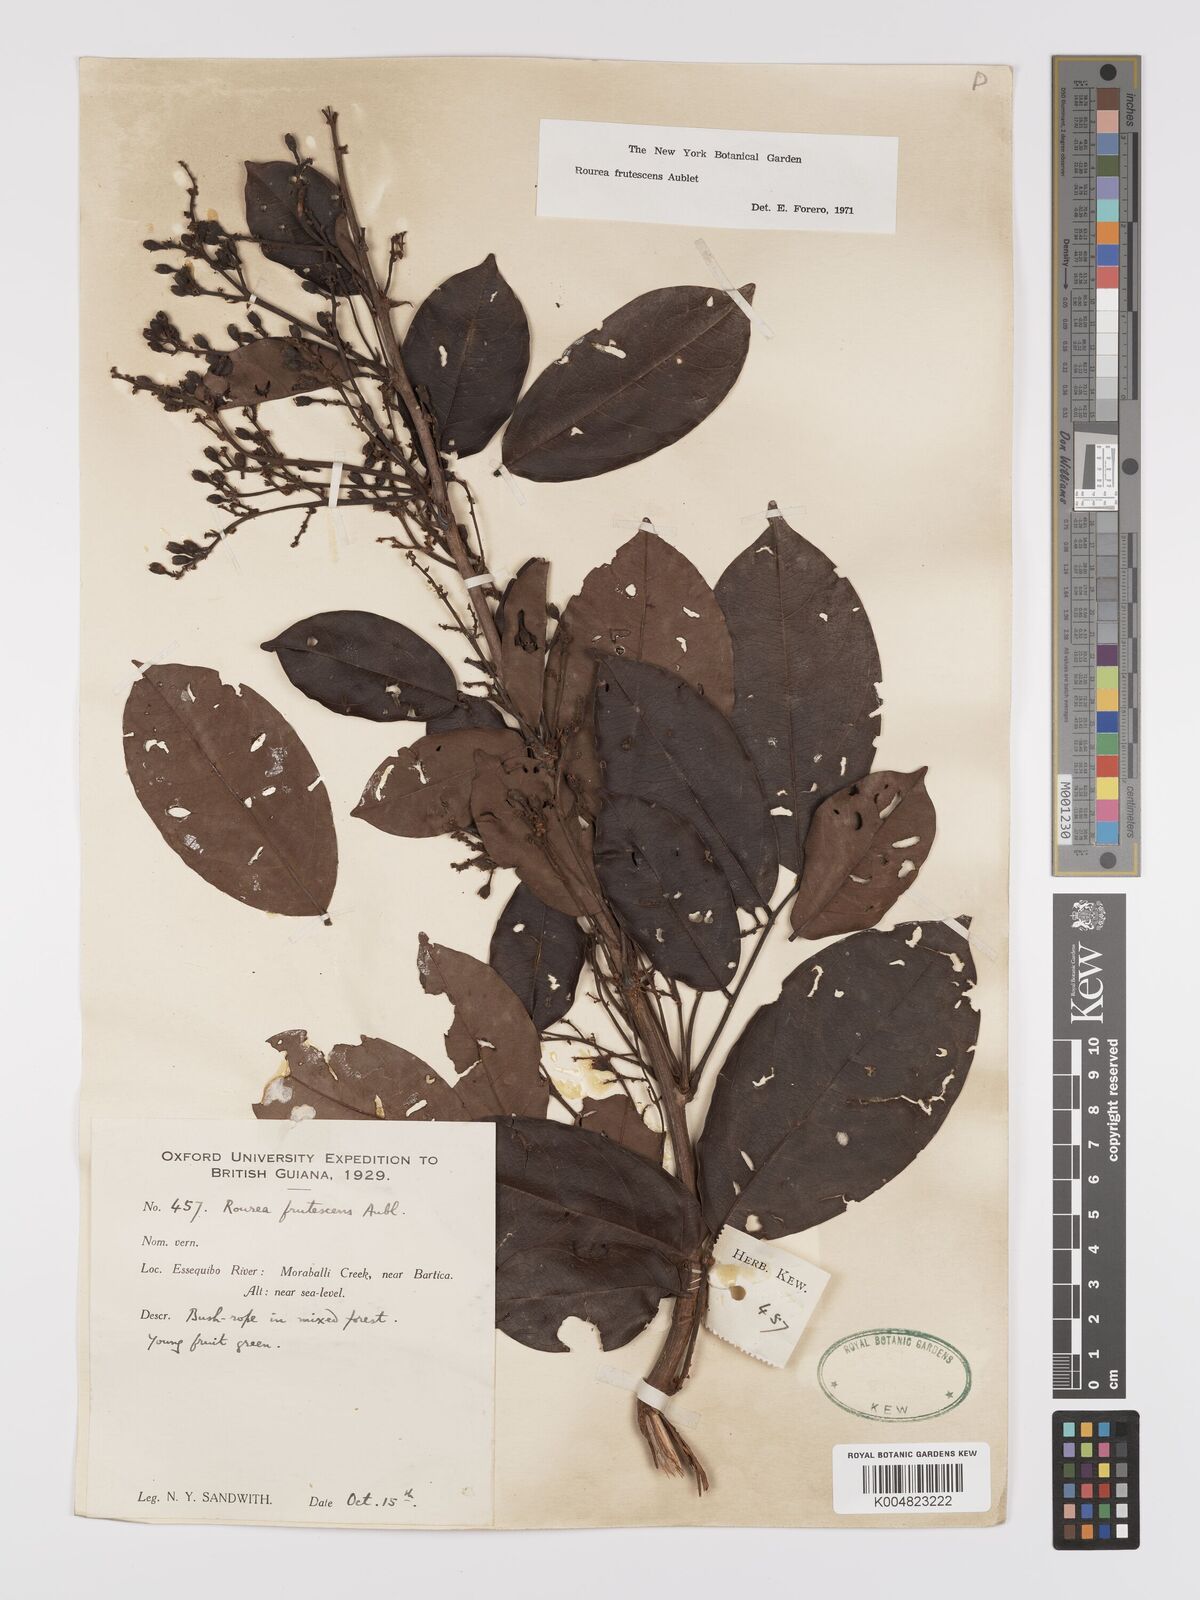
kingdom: Plantae
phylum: Tracheophyta
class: Magnoliopsida
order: Oxalidales
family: Connaraceae
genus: Rourea
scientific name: Rourea frutescens
